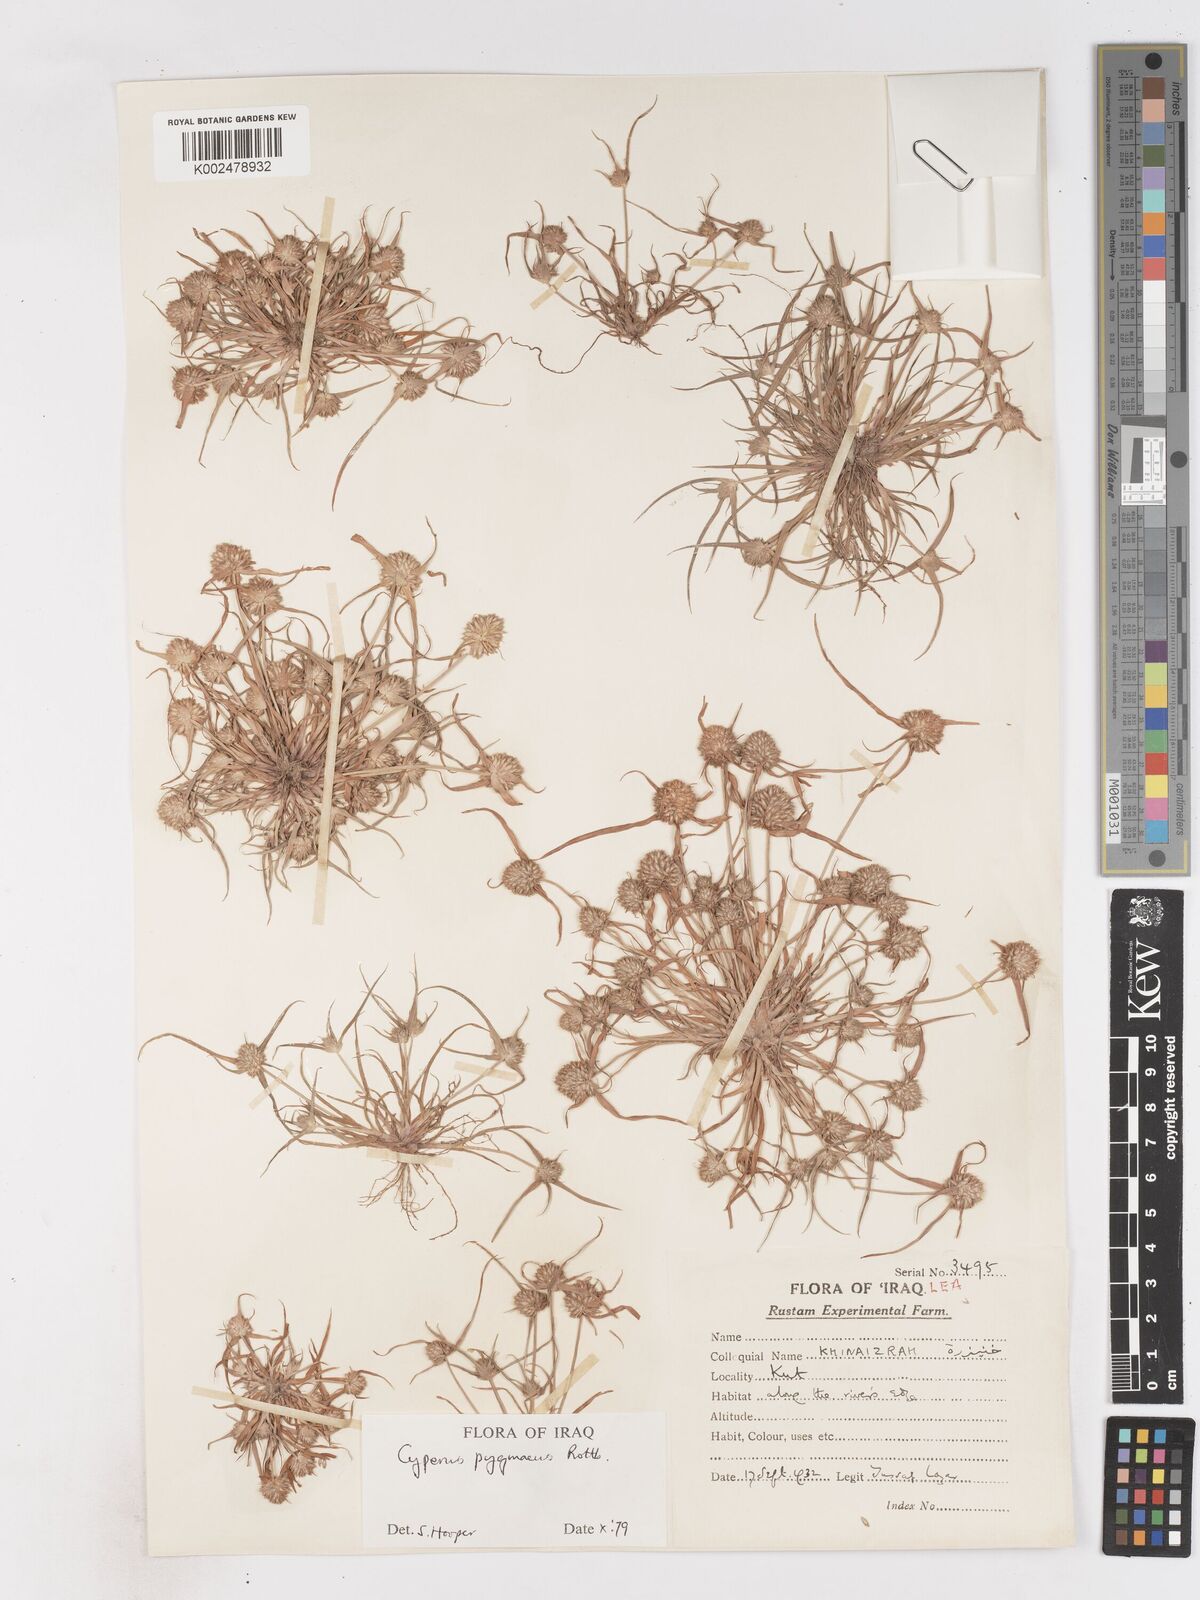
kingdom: Plantae
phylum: Tracheophyta
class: Liliopsida
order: Poales
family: Cyperaceae
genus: Cyperus
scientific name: Cyperus michelianus
